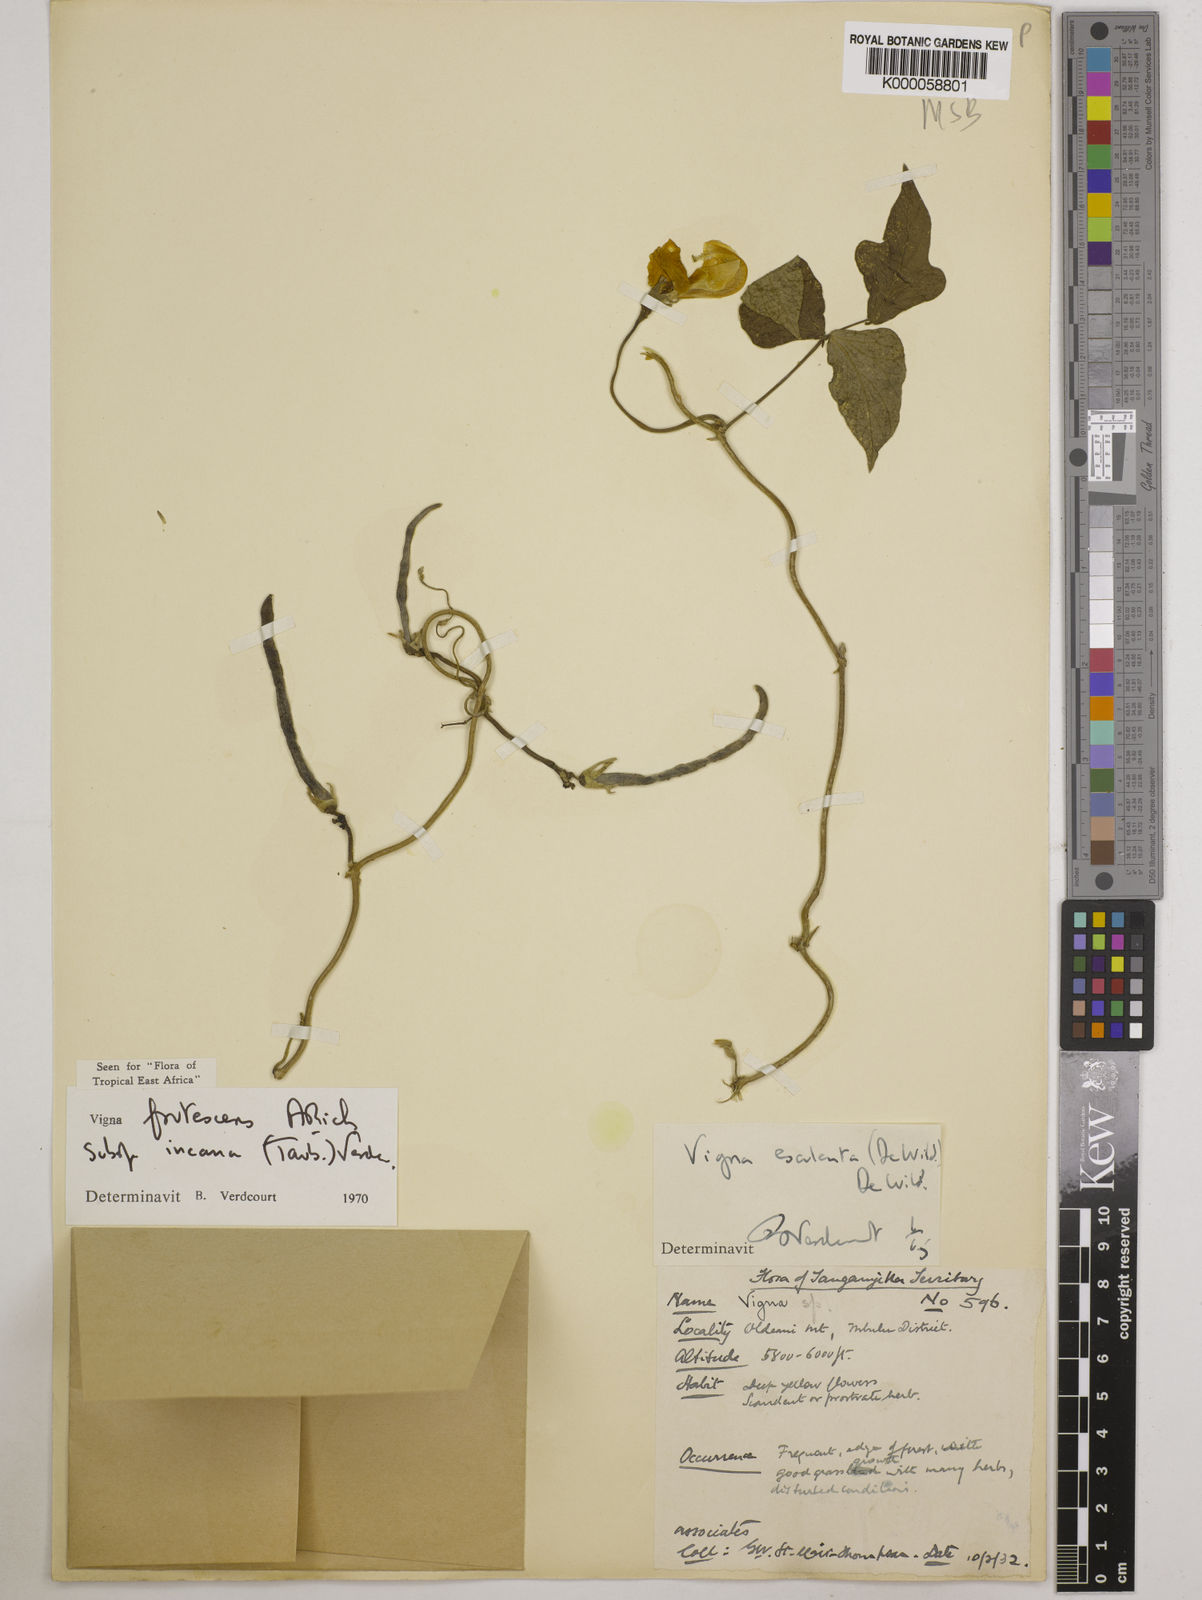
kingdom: Plantae
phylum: Tracheophyta
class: Magnoliopsida
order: Fabales
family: Fabaceae
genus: Vigna
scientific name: Vigna
